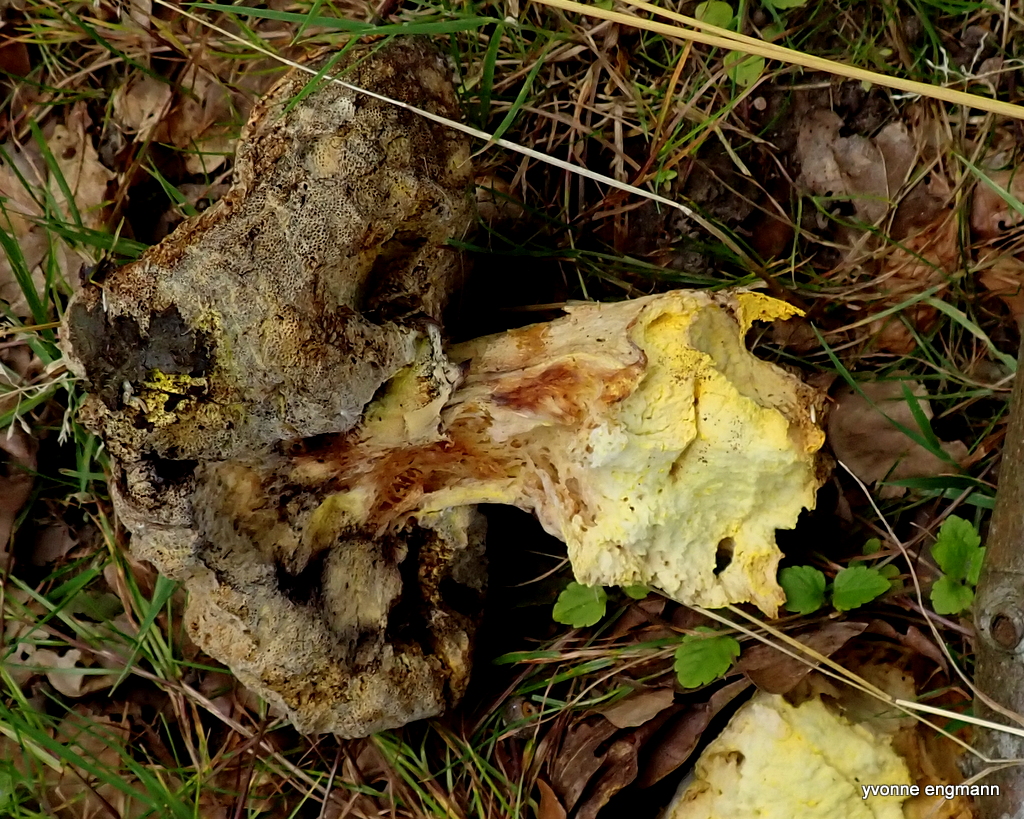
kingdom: Fungi
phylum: Ascomycota
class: Sordariomycetes
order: Hypocreales
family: Hypocreaceae
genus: Hypomyces
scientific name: Hypomyces chrysospermus
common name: gulskimmel-snylteskorpe
